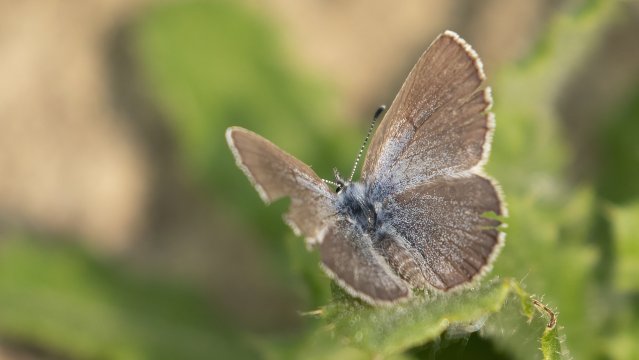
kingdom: Animalia
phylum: Arthropoda
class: Insecta
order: Lepidoptera
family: Lycaenidae
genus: Glaucopsyche
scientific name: Glaucopsyche lygdamus
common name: Silvery Blue
